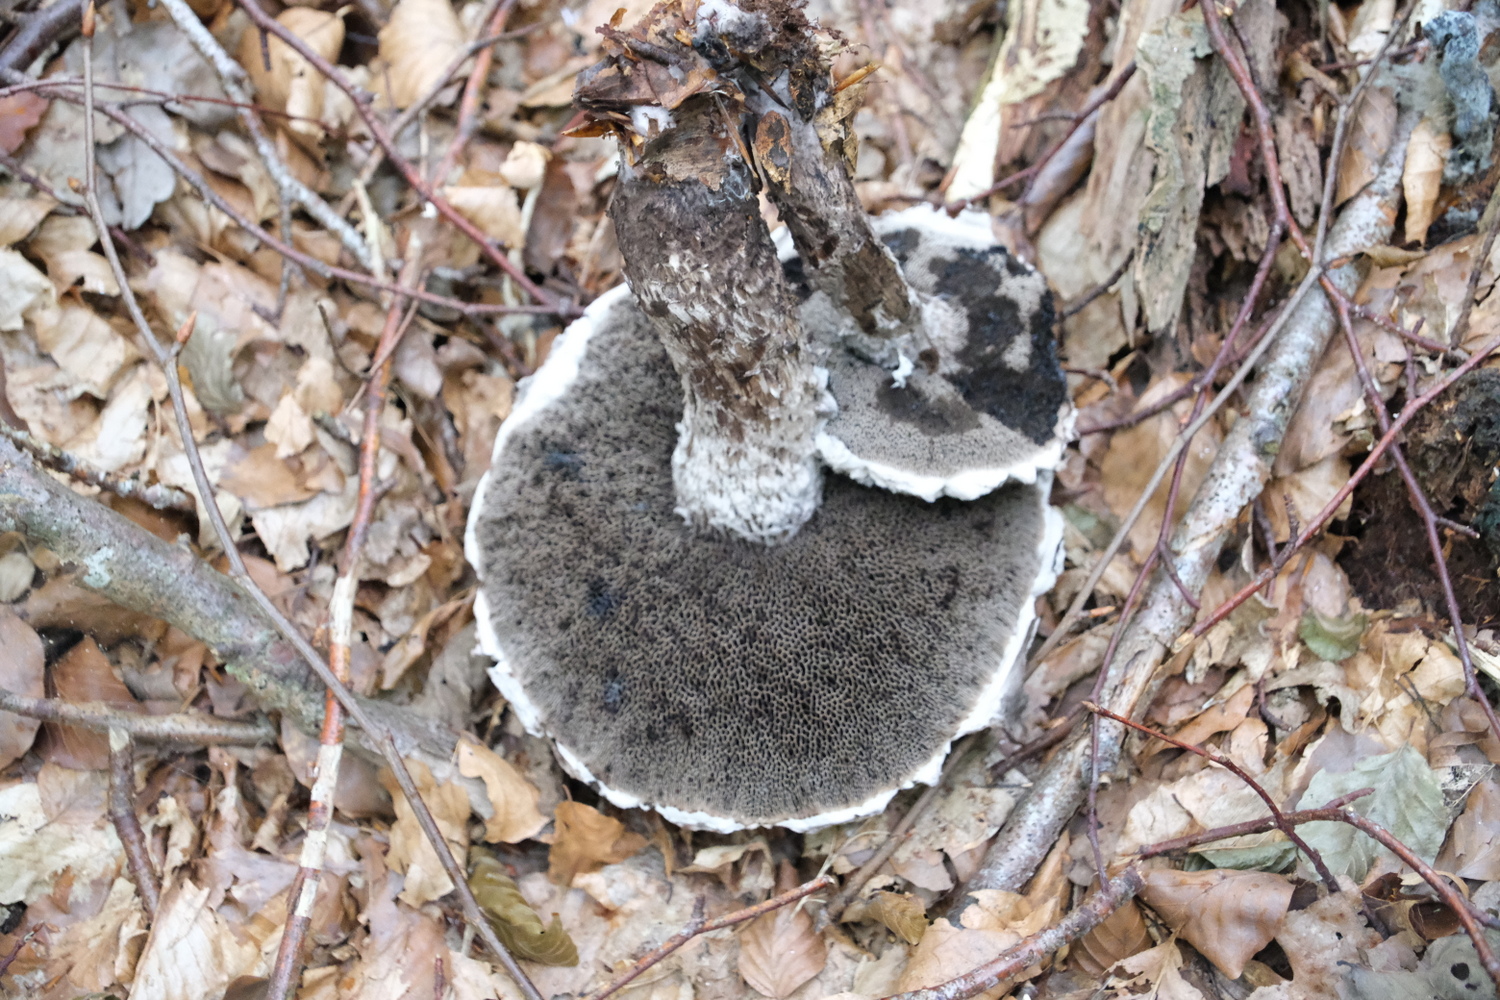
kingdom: Fungi
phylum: Basidiomycota
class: Agaricomycetes
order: Boletales
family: Boletaceae
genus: Strobilomyces
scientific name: Strobilomyces strobilaceus
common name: koglerørhat
